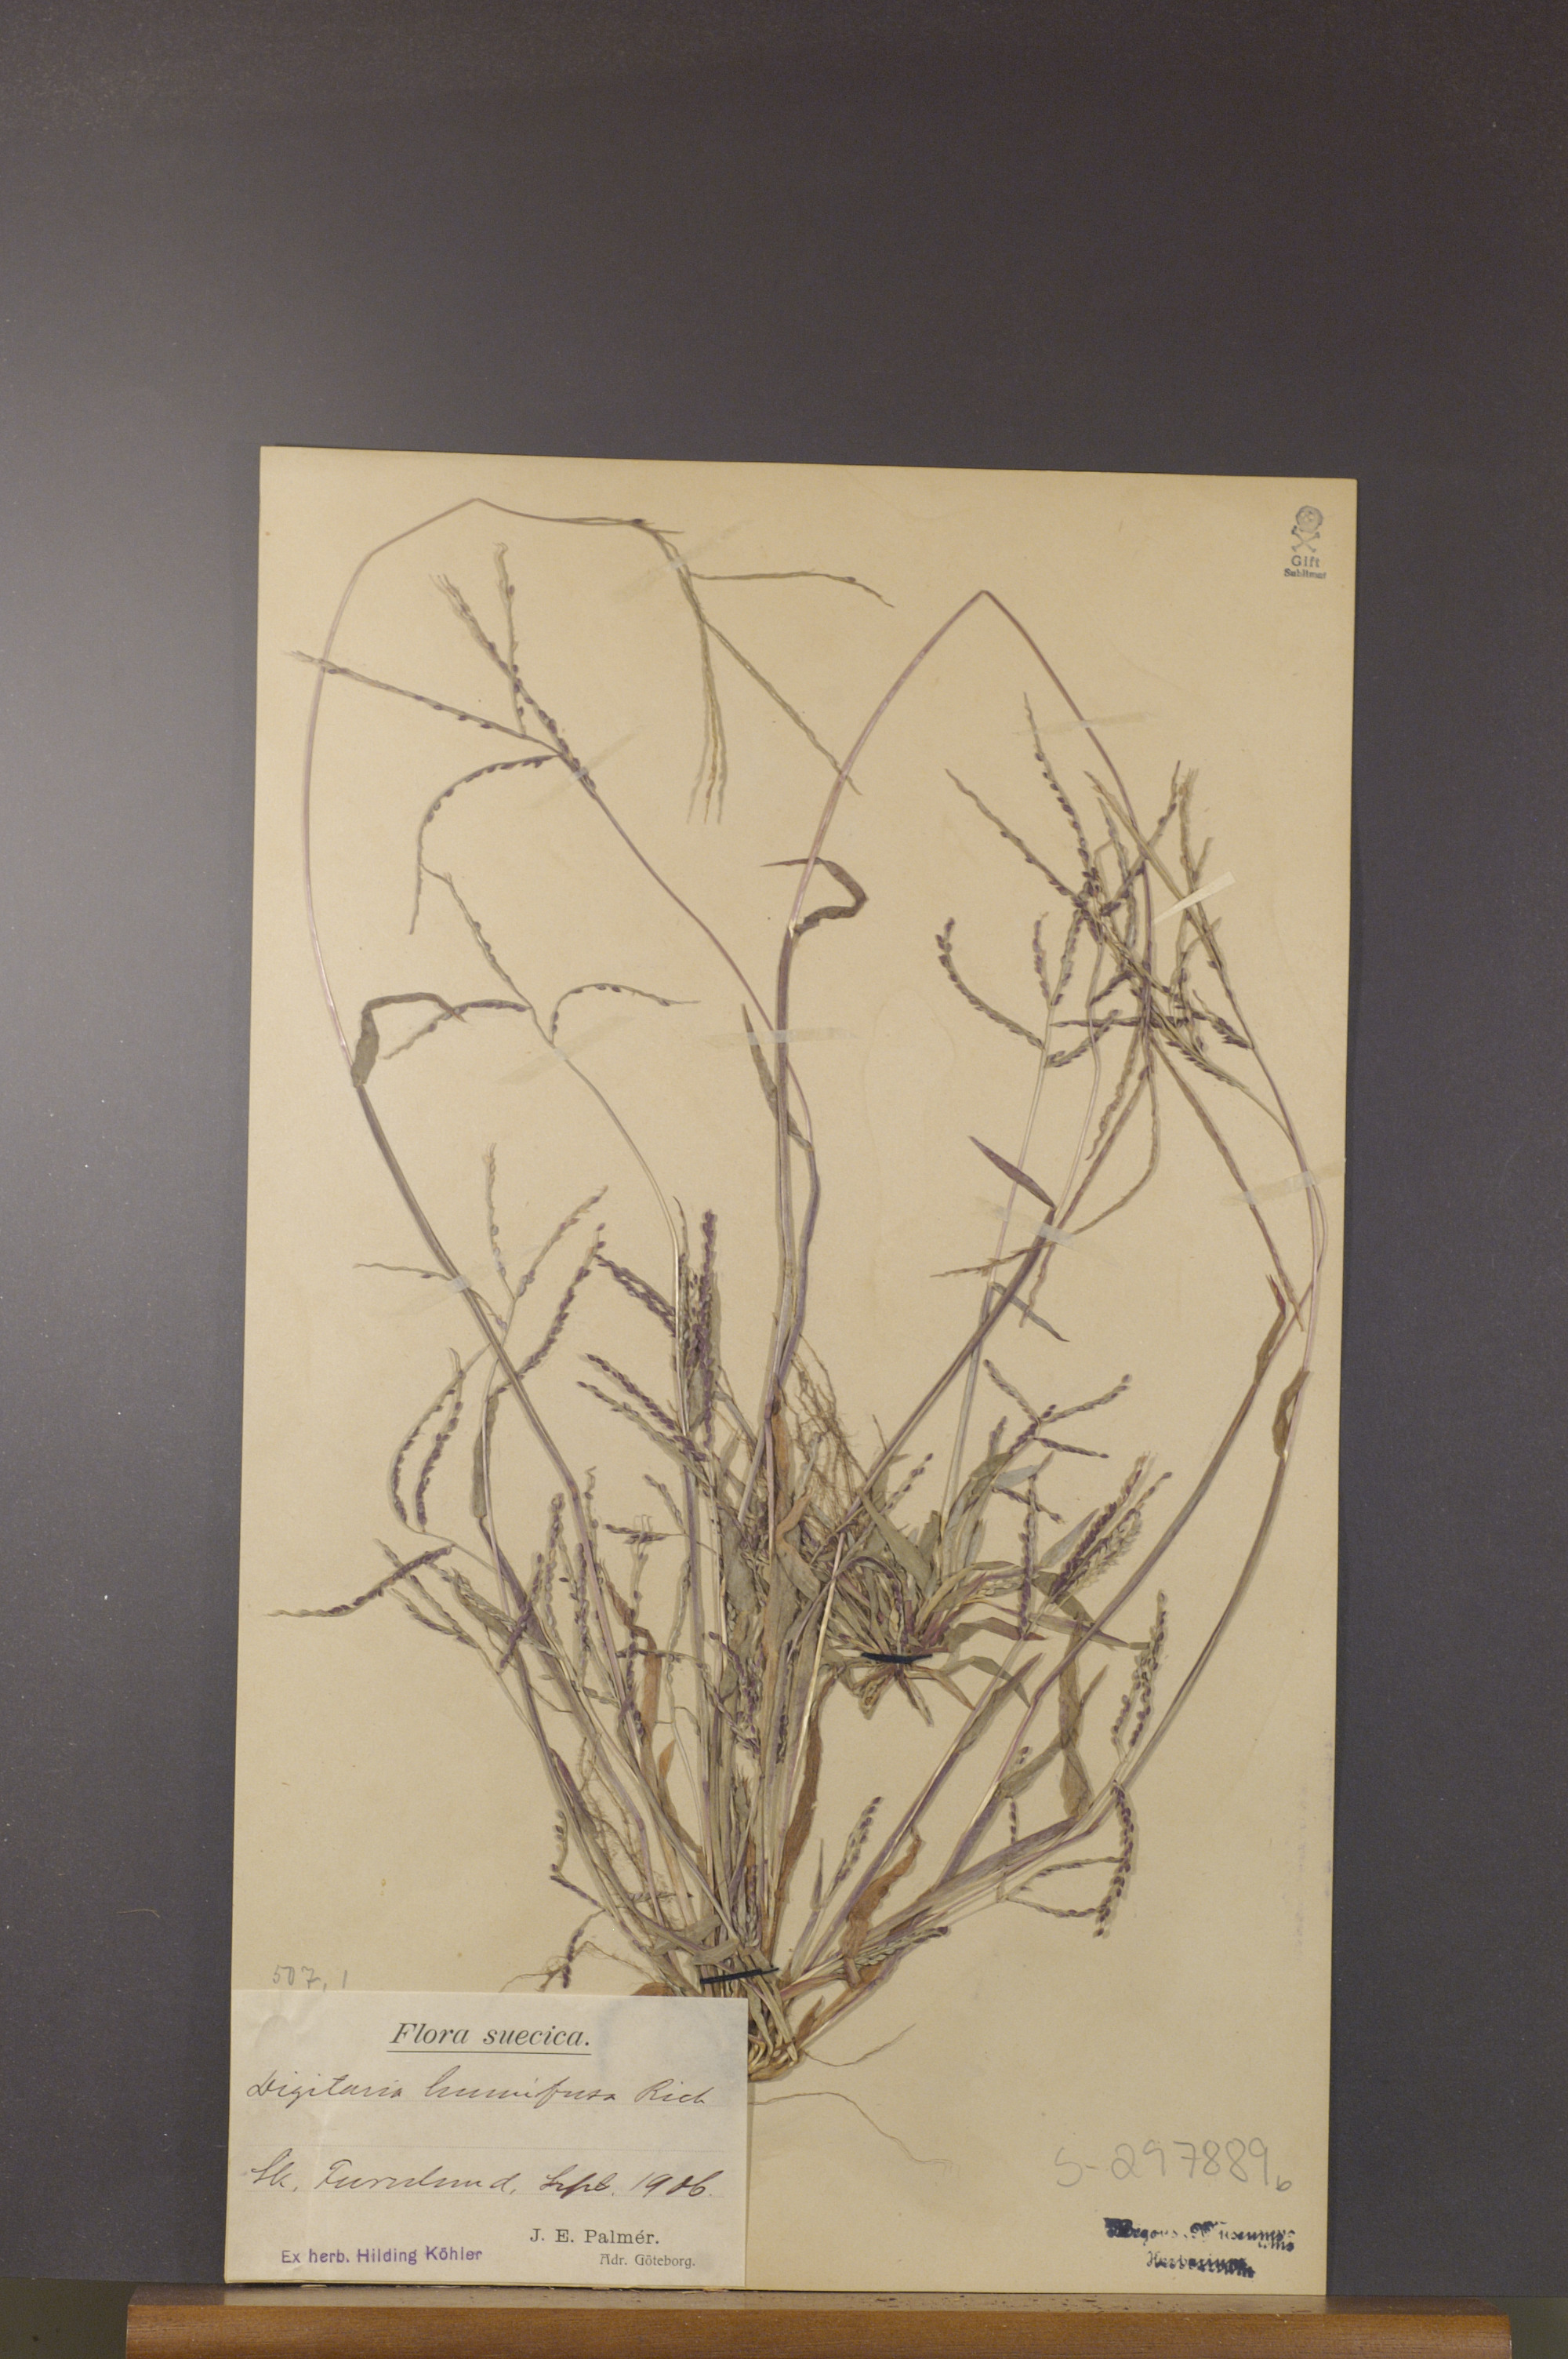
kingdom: Plantae
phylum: Tracheophyta
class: Liliopsida
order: Poales
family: Poaceae
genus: Digitaria
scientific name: Digitaria ischaemum
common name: Smooth crabgrass
